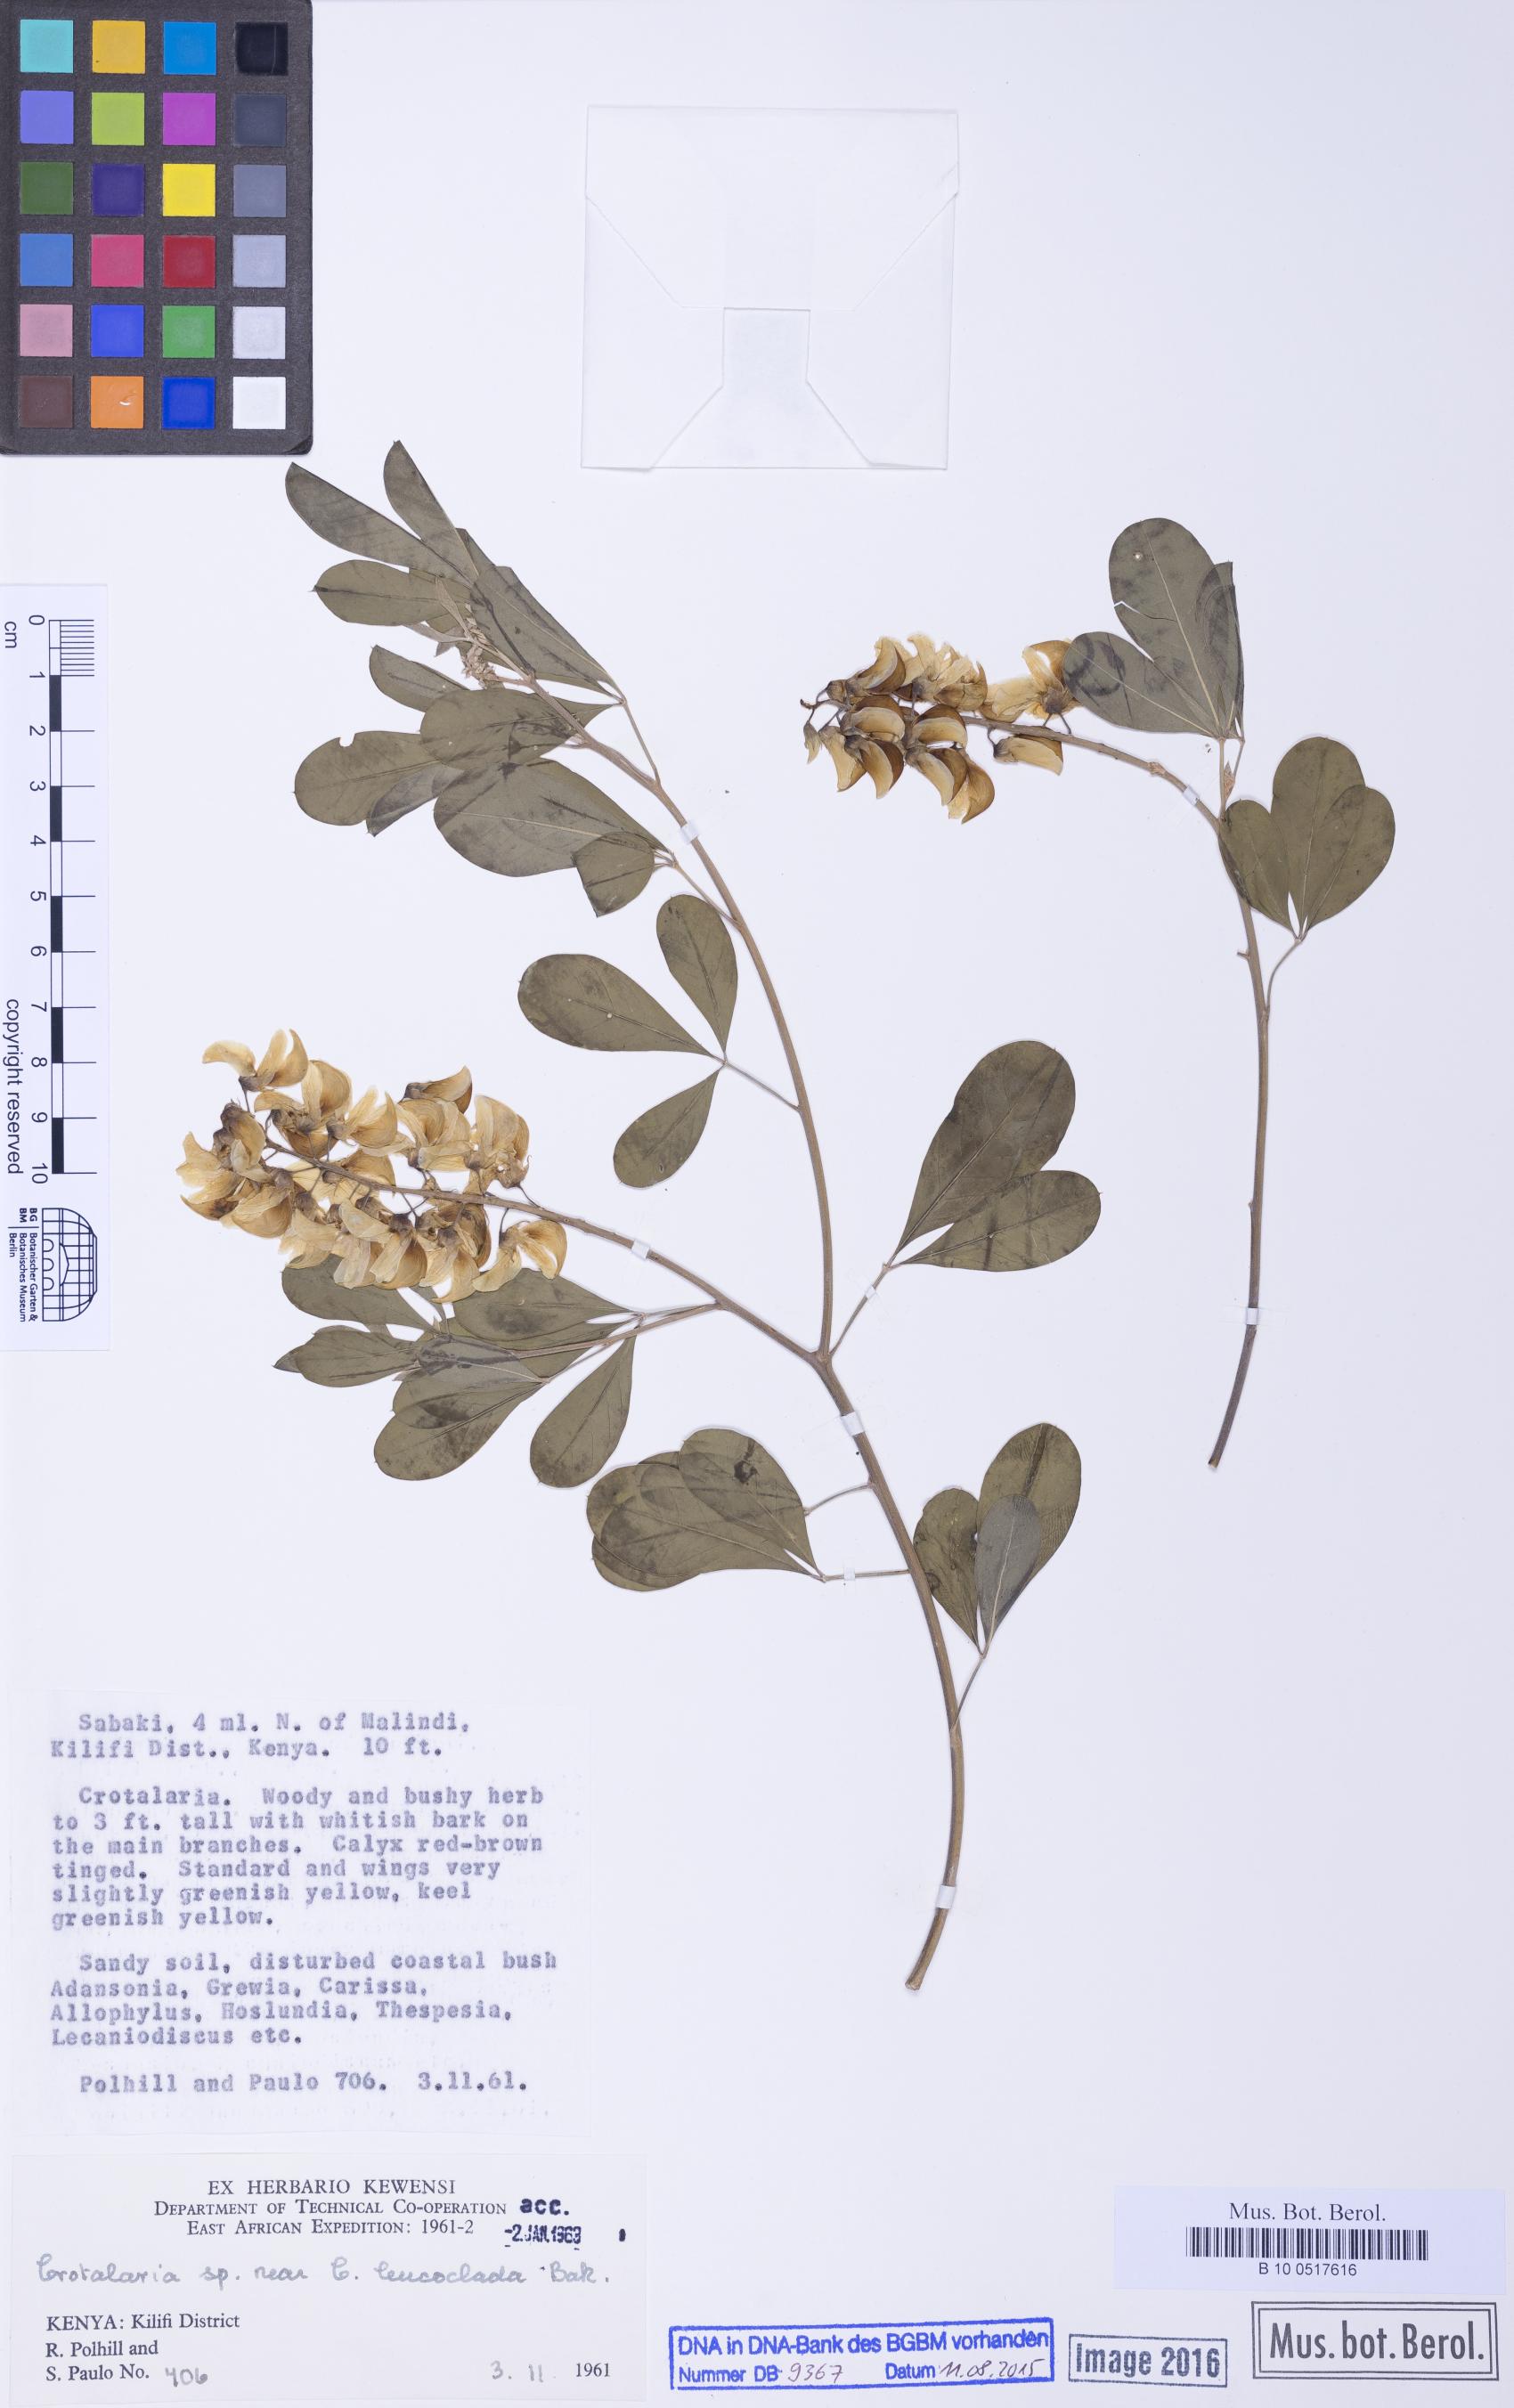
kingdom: Plantae
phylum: Tracheophyta
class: Magnoliopsida
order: Fabales
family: Fabaceae
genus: Crotalaria
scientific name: Crotalaria leucoclada
